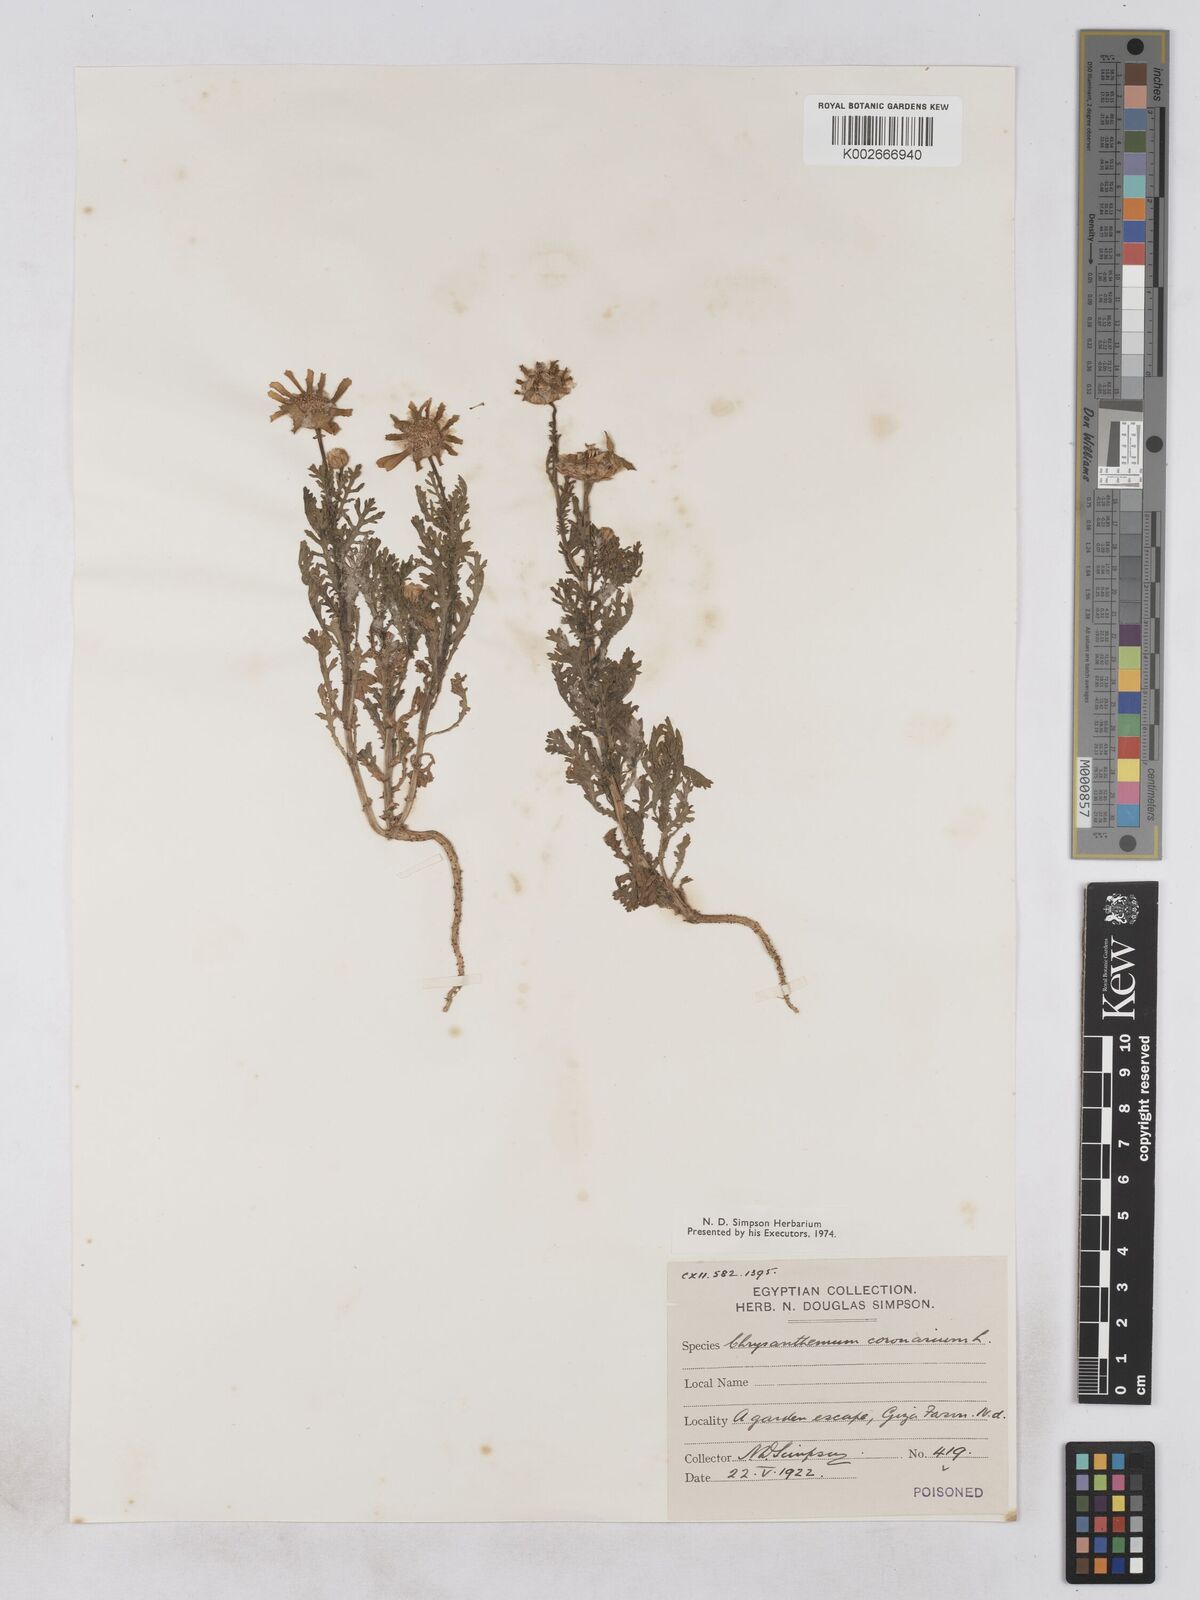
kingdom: Plantae
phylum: Tracheophyta
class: Magnoliopsida
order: Asterales
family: Asteraceae
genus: Glebionis
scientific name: Glebionis coronaria
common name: Crowndaisy
